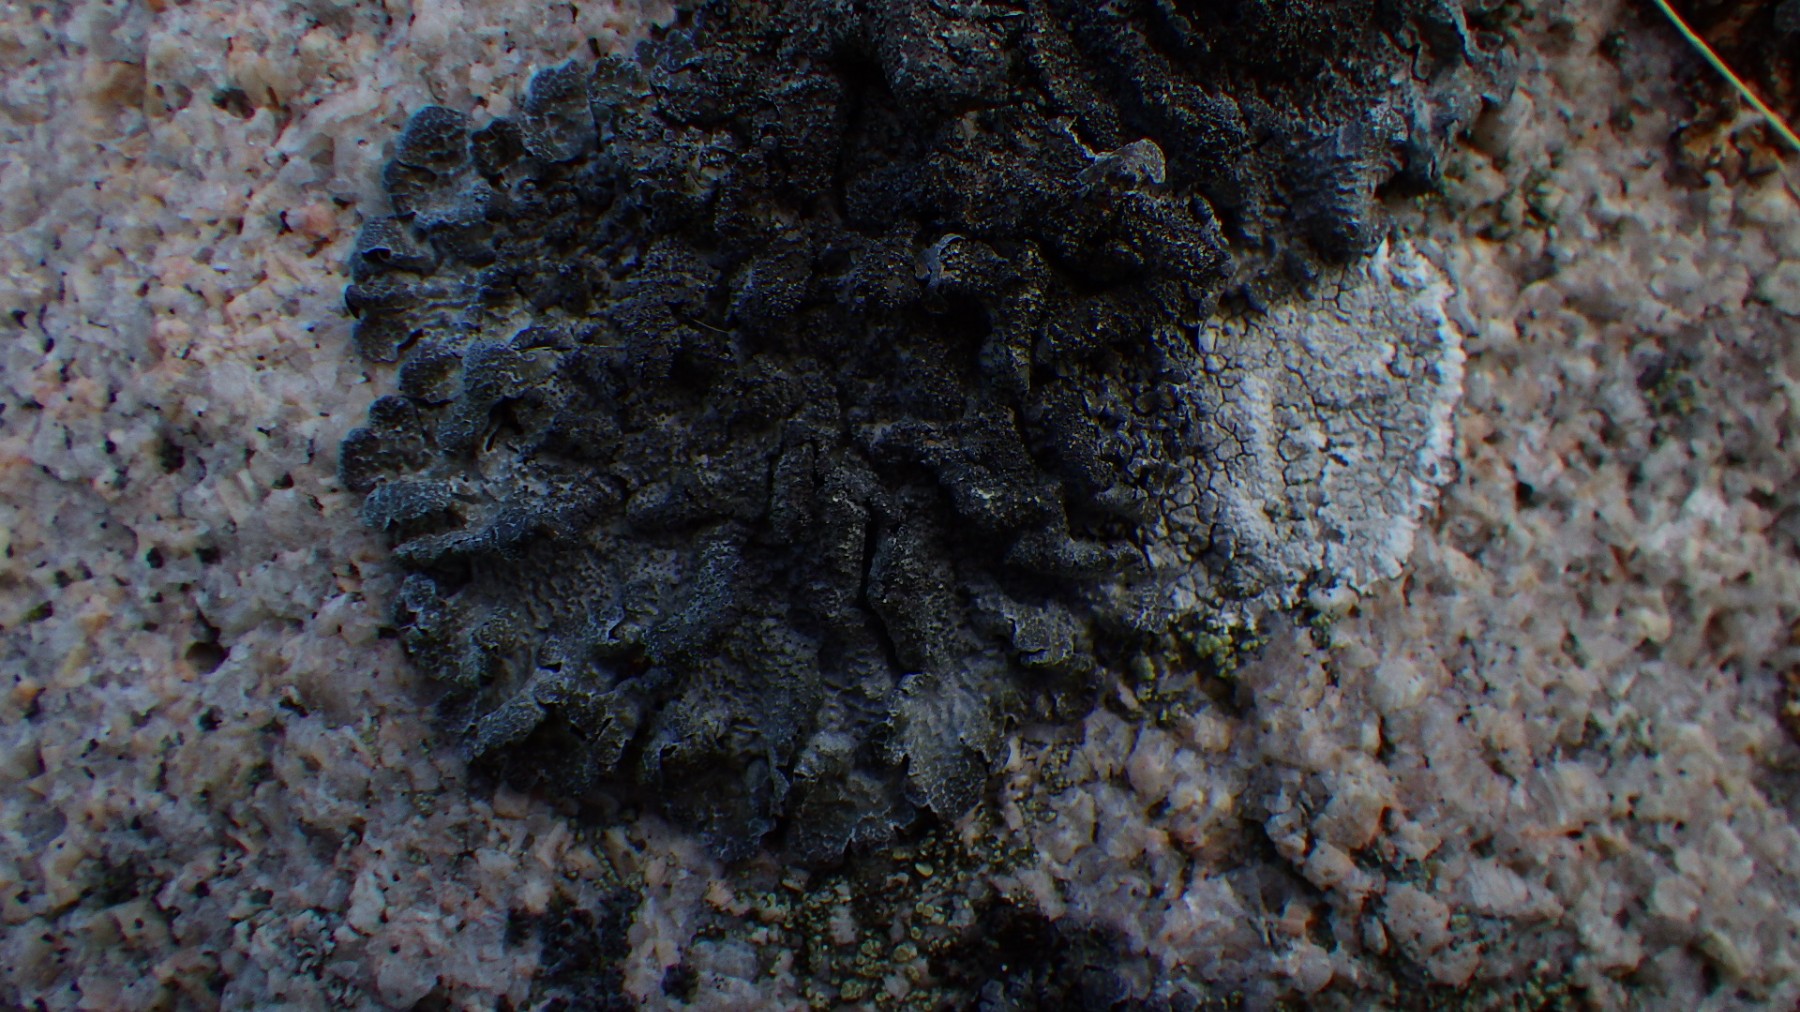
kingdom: Fungi
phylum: Ascomycota
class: Lecanoromycetes
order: Lecanorales
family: Parmeliaceae
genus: Parmelia
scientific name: Parmelia
